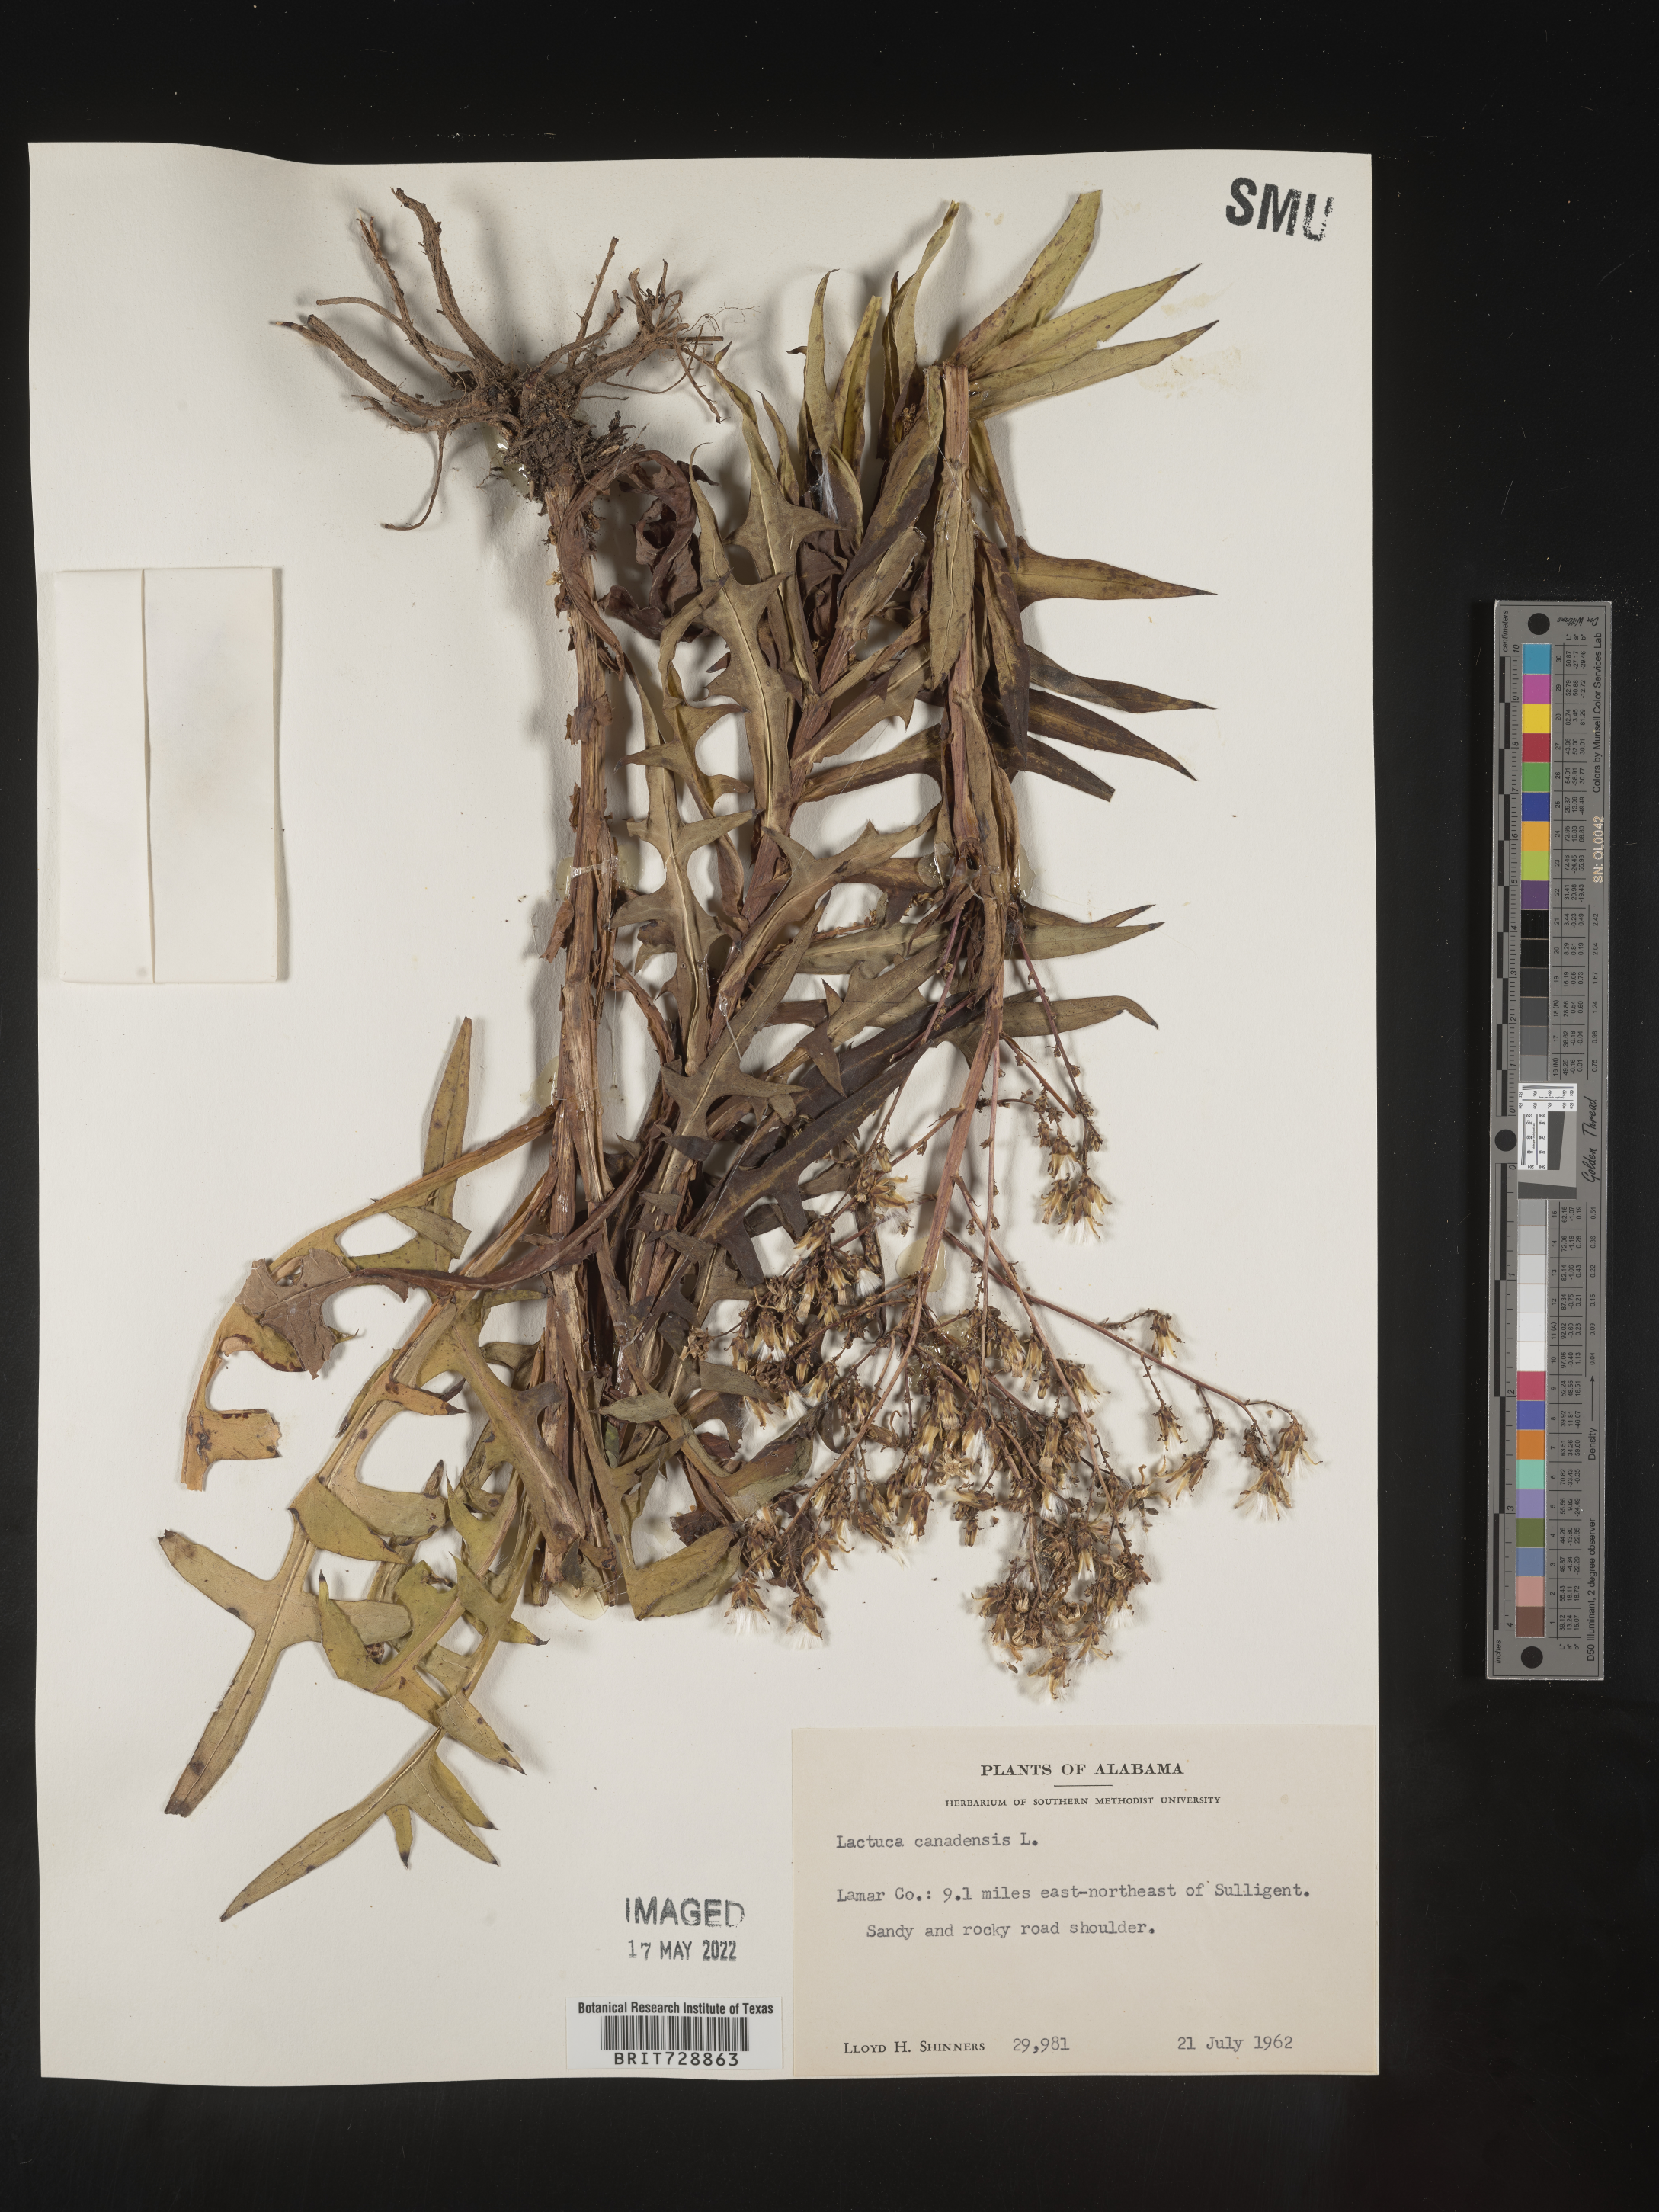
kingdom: Plantae
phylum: Tracheophyta
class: Magnoliopsida
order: Asterales
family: Asteraceae
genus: Lactuca
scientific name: Lactuca canadensis
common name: Canada lettuce
